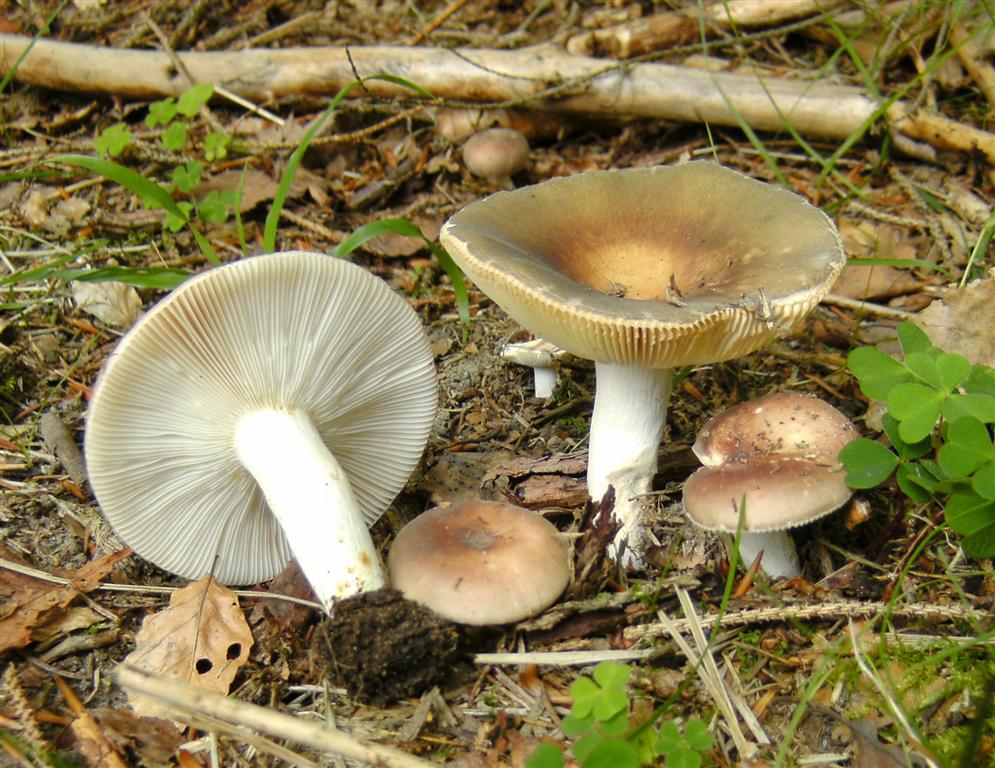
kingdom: Fungi
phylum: Basidiomycota
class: Agaricomycetes
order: Russulales
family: Russulaceae
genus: Russula
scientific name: Russula vesca
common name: spiselig skørhat
